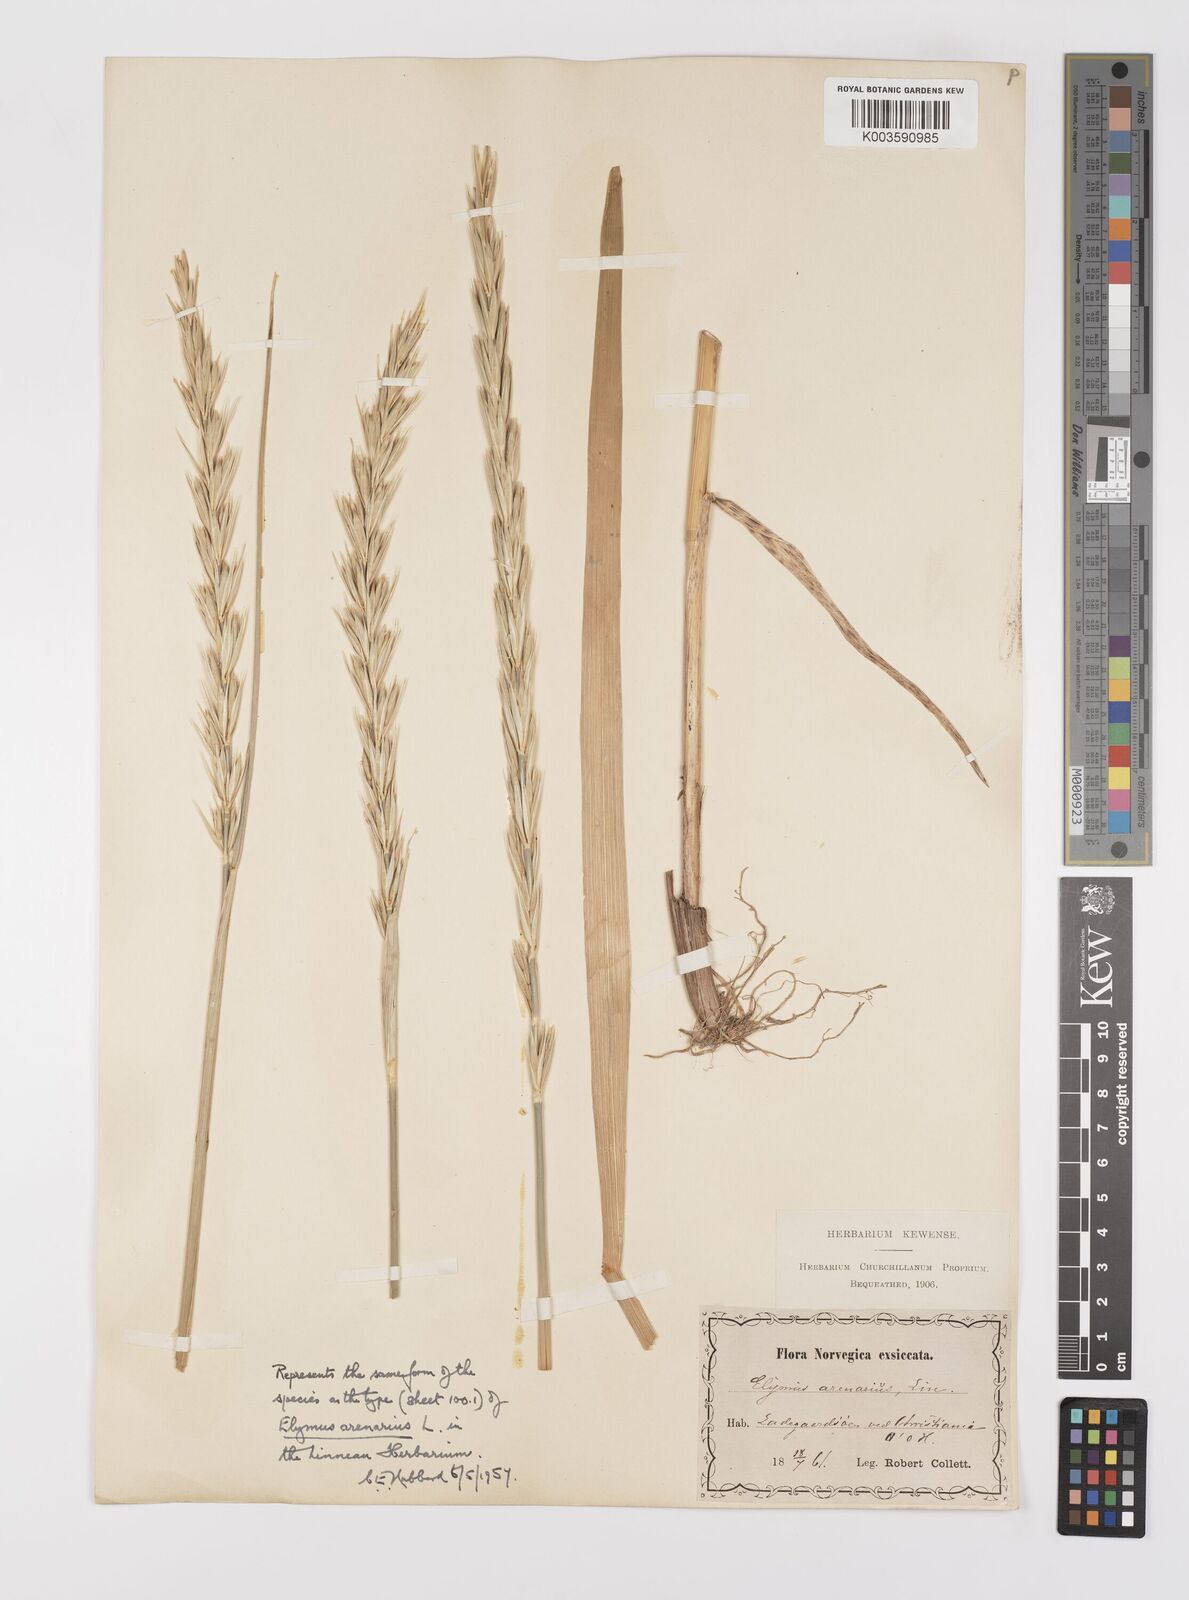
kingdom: Plantae
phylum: Tracheophyta
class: Liliopsida
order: Poales
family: Poaceae
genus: Leymus
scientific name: Leymus arenarius
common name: Lyme-grass
